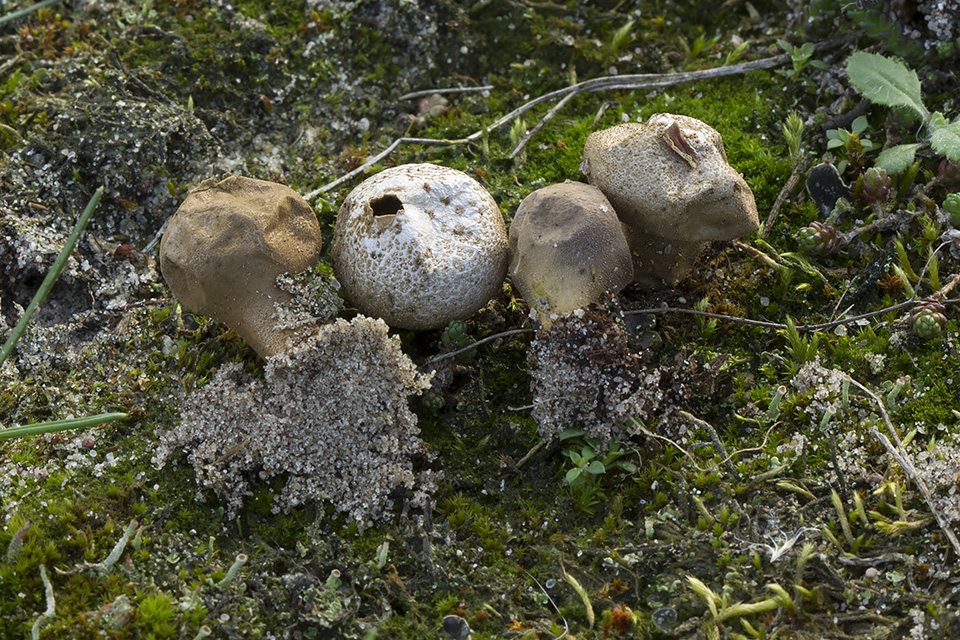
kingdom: Fungi
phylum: Basidiomycota
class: Agaricomycetes
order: Agaricales
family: Lycoperdaceae
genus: Lycoperdon
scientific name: Lycoperdon lividum
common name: mark-støvbold
